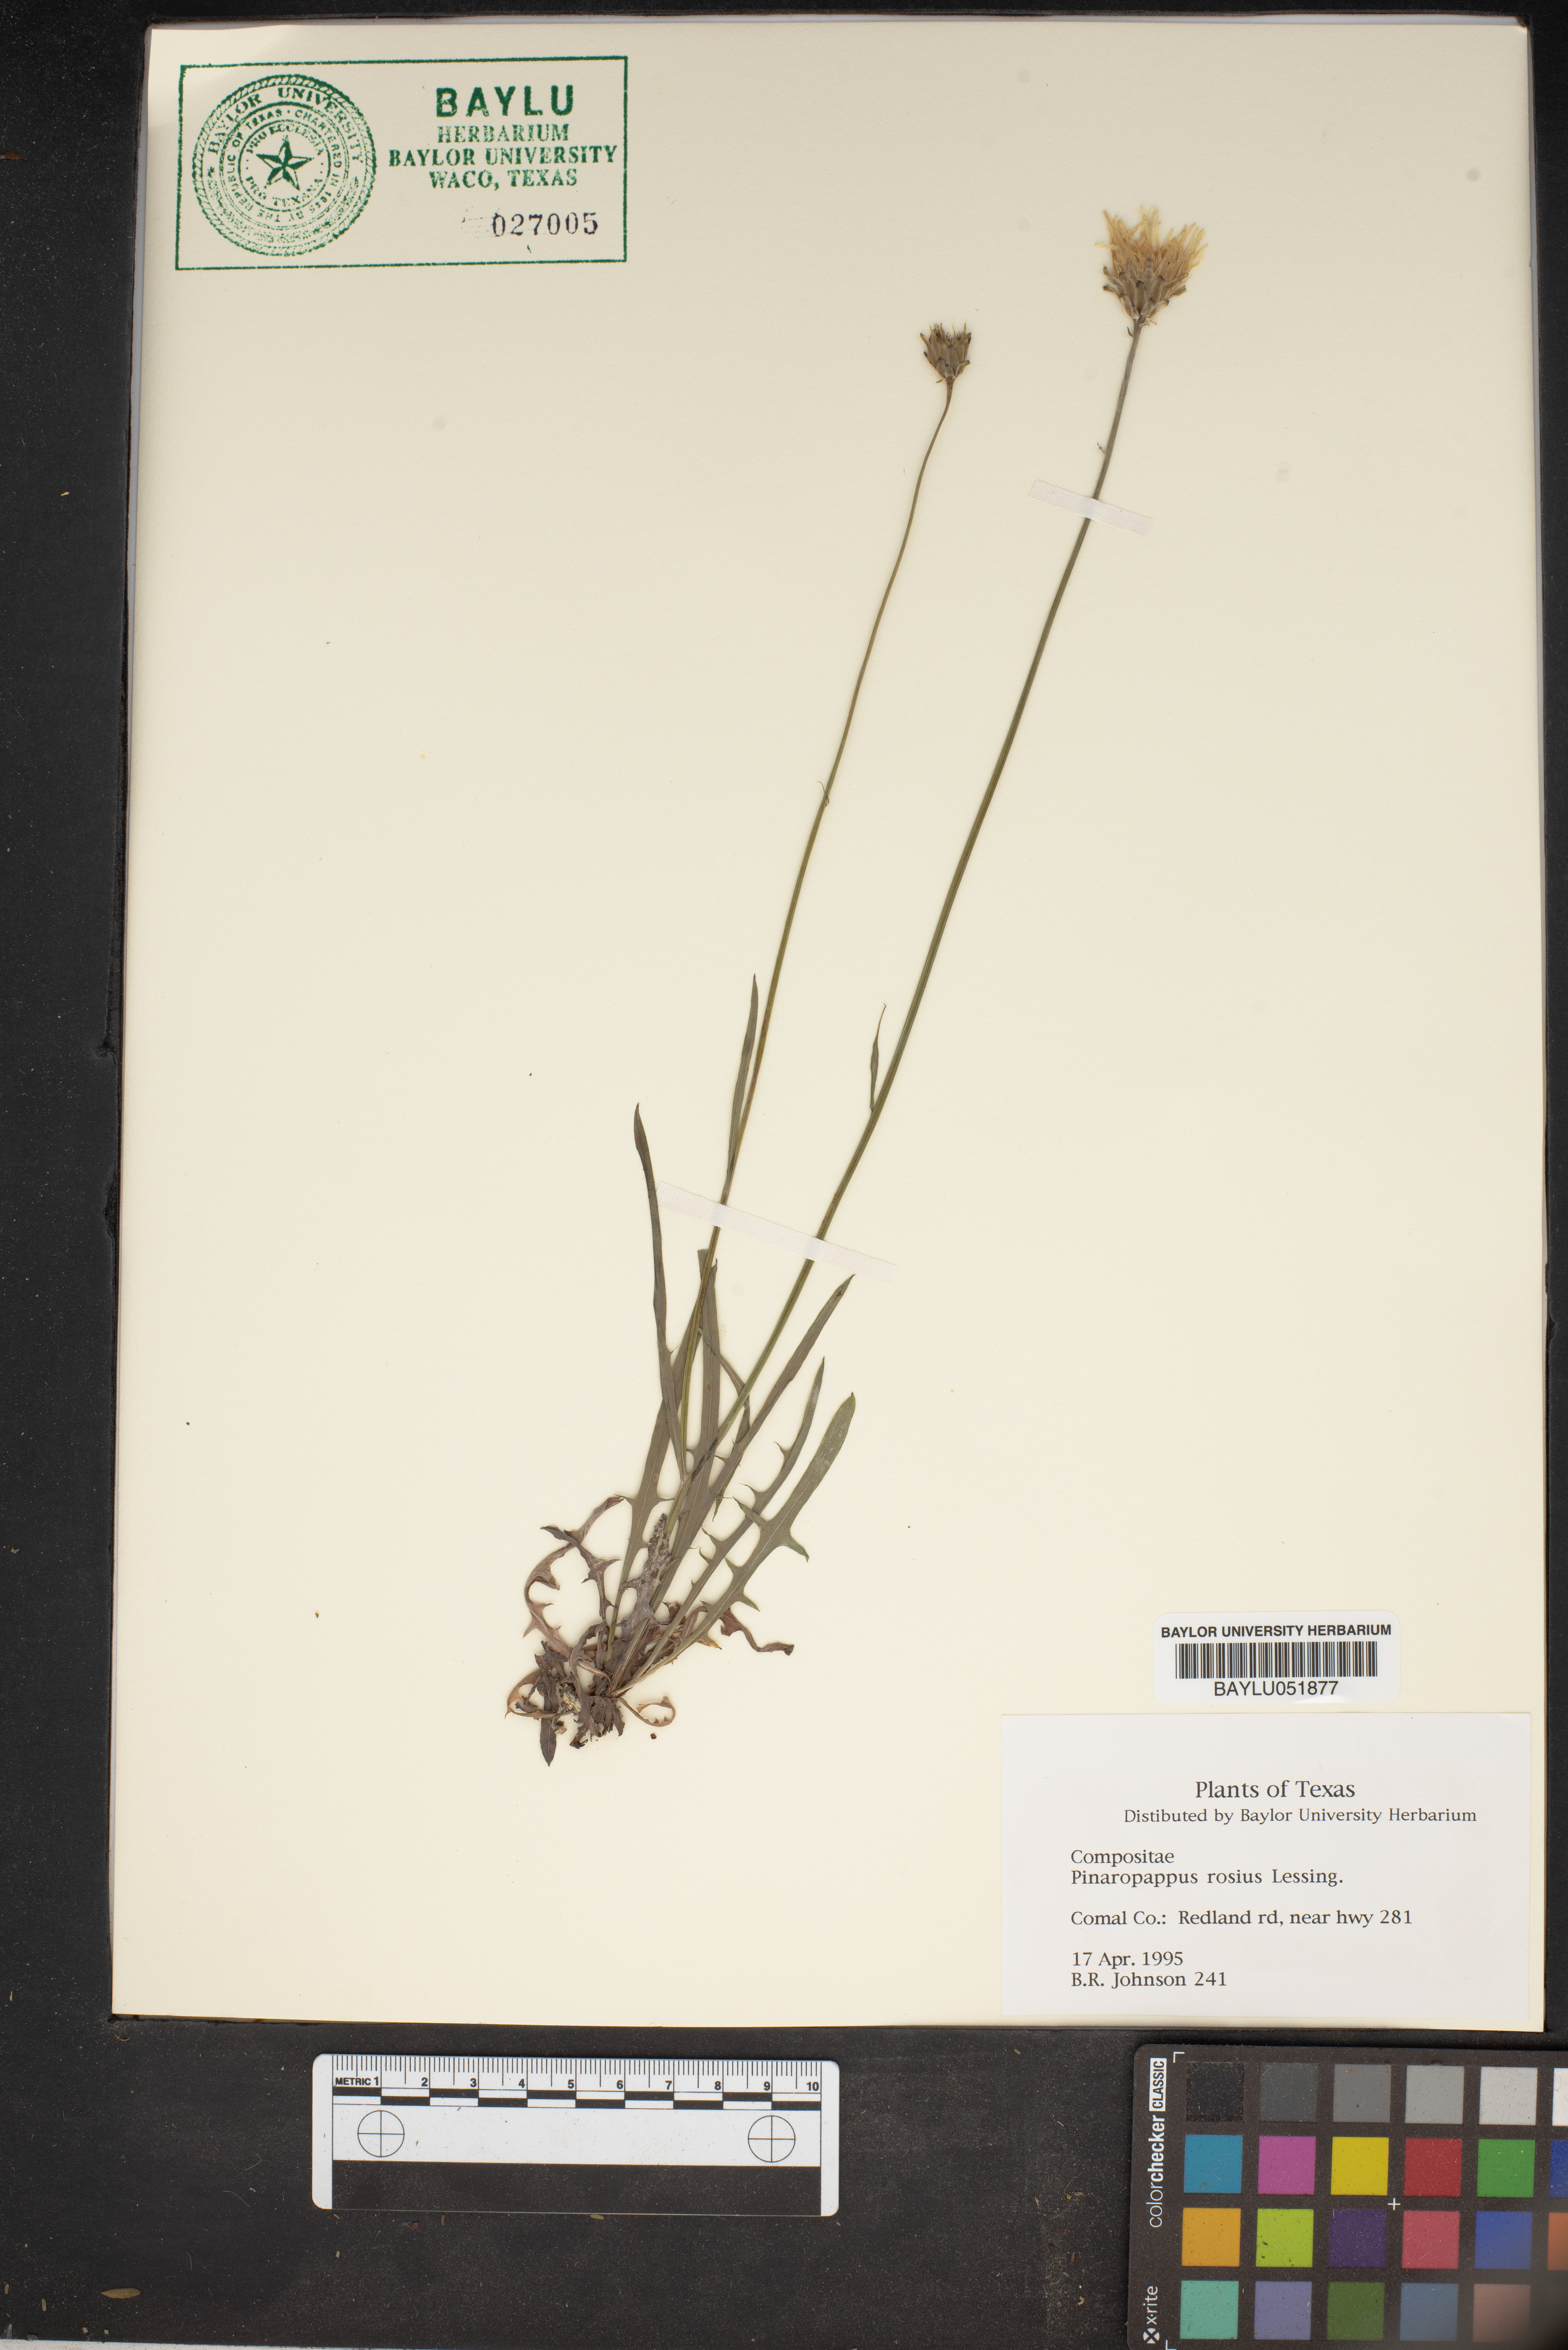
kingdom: Plantae
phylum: Tracheophyta
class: Magnoliopsida
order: Asterales
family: Asteraceae
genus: Pinaropappus
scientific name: Pinaropappus roseus
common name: Rock-lettuce
